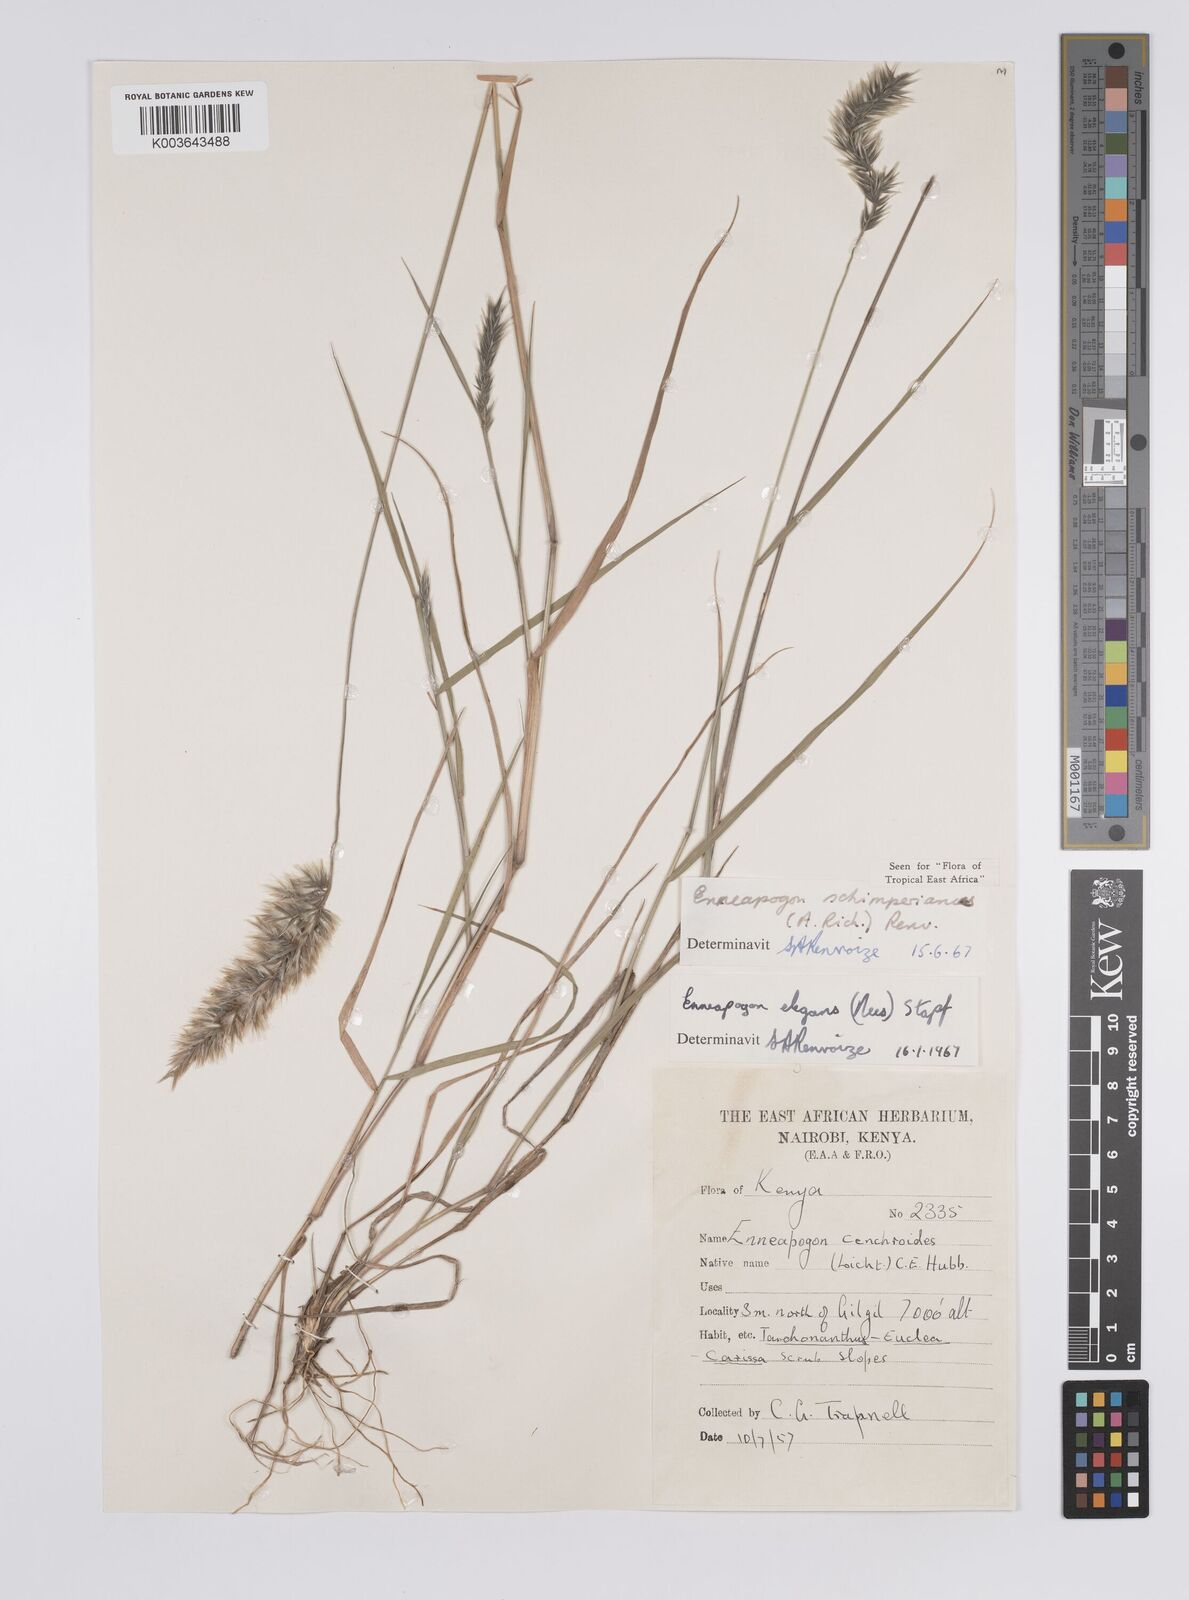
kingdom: Plantae
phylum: Tracheophyta
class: Liliopsida
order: Poales
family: Poaceae
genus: Enneapogon
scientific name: Enneapogon persicus
